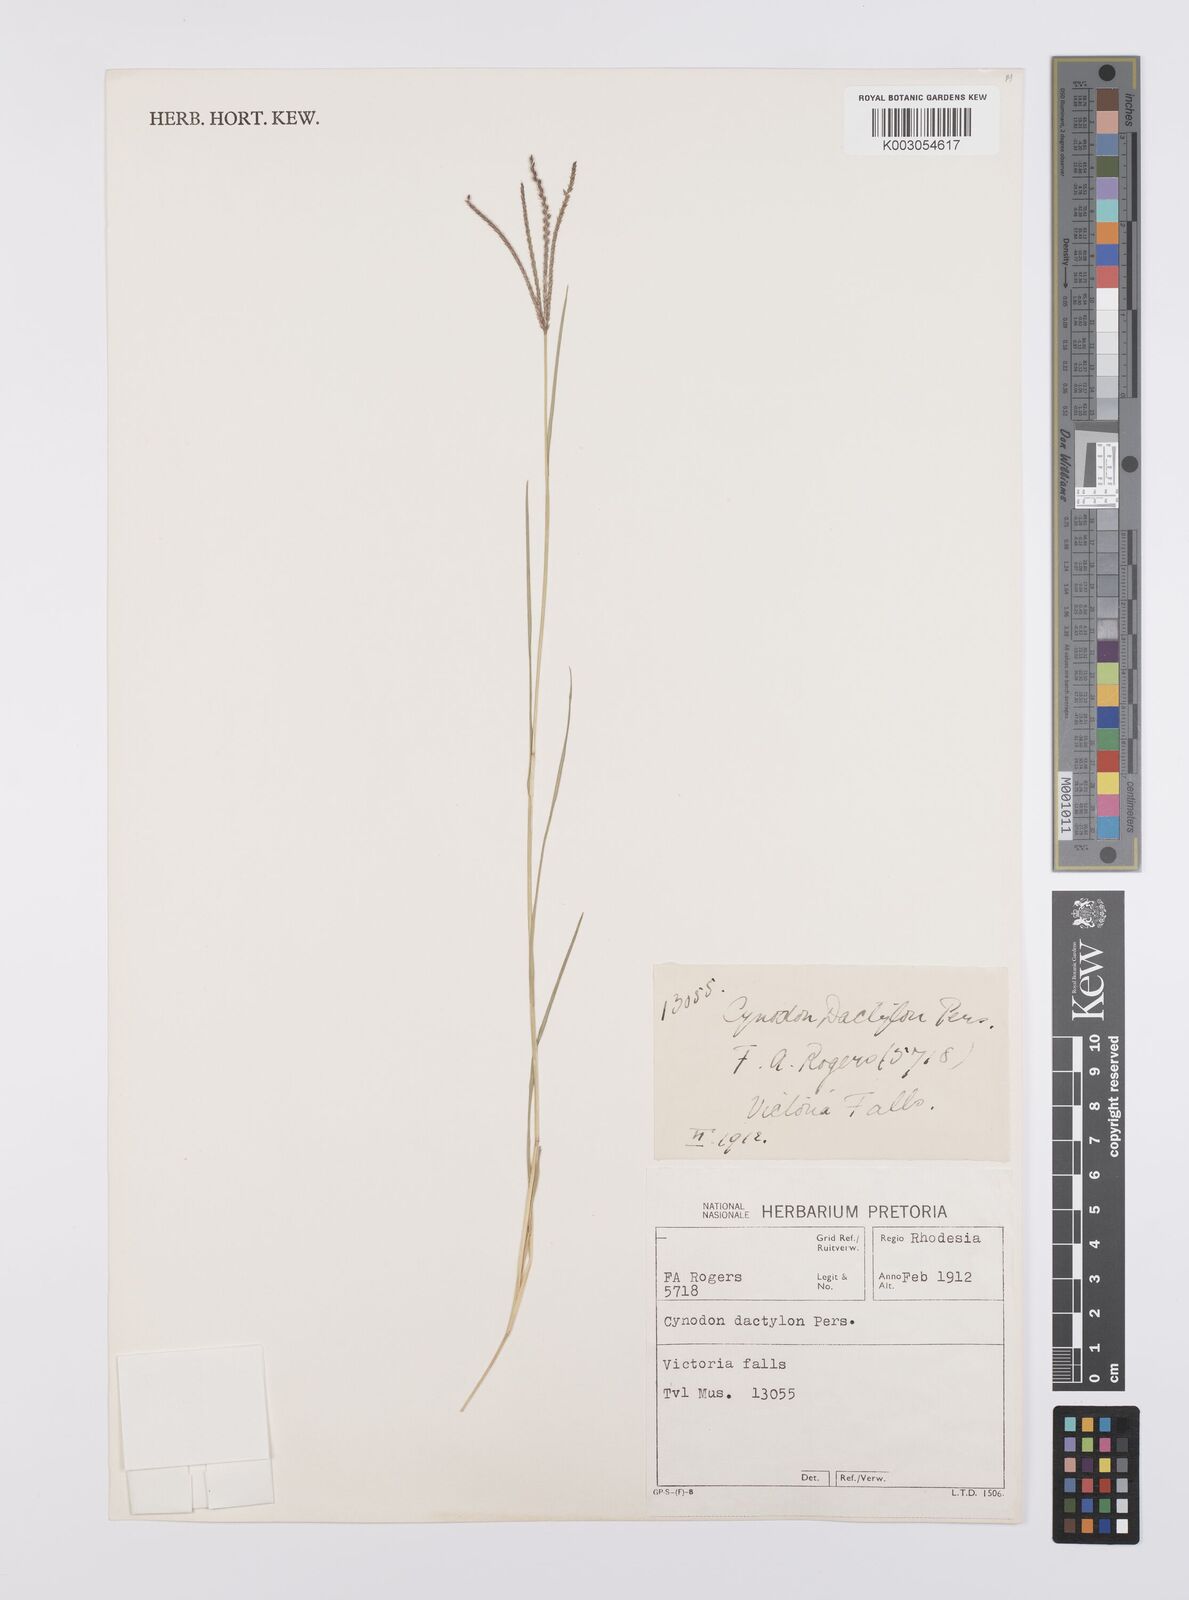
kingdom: Plantae
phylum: Tracheophyta
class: Liliopsida
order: Poales
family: Poaceae
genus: Cynodon
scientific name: Cynodon dactylon
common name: Bermuda grass
